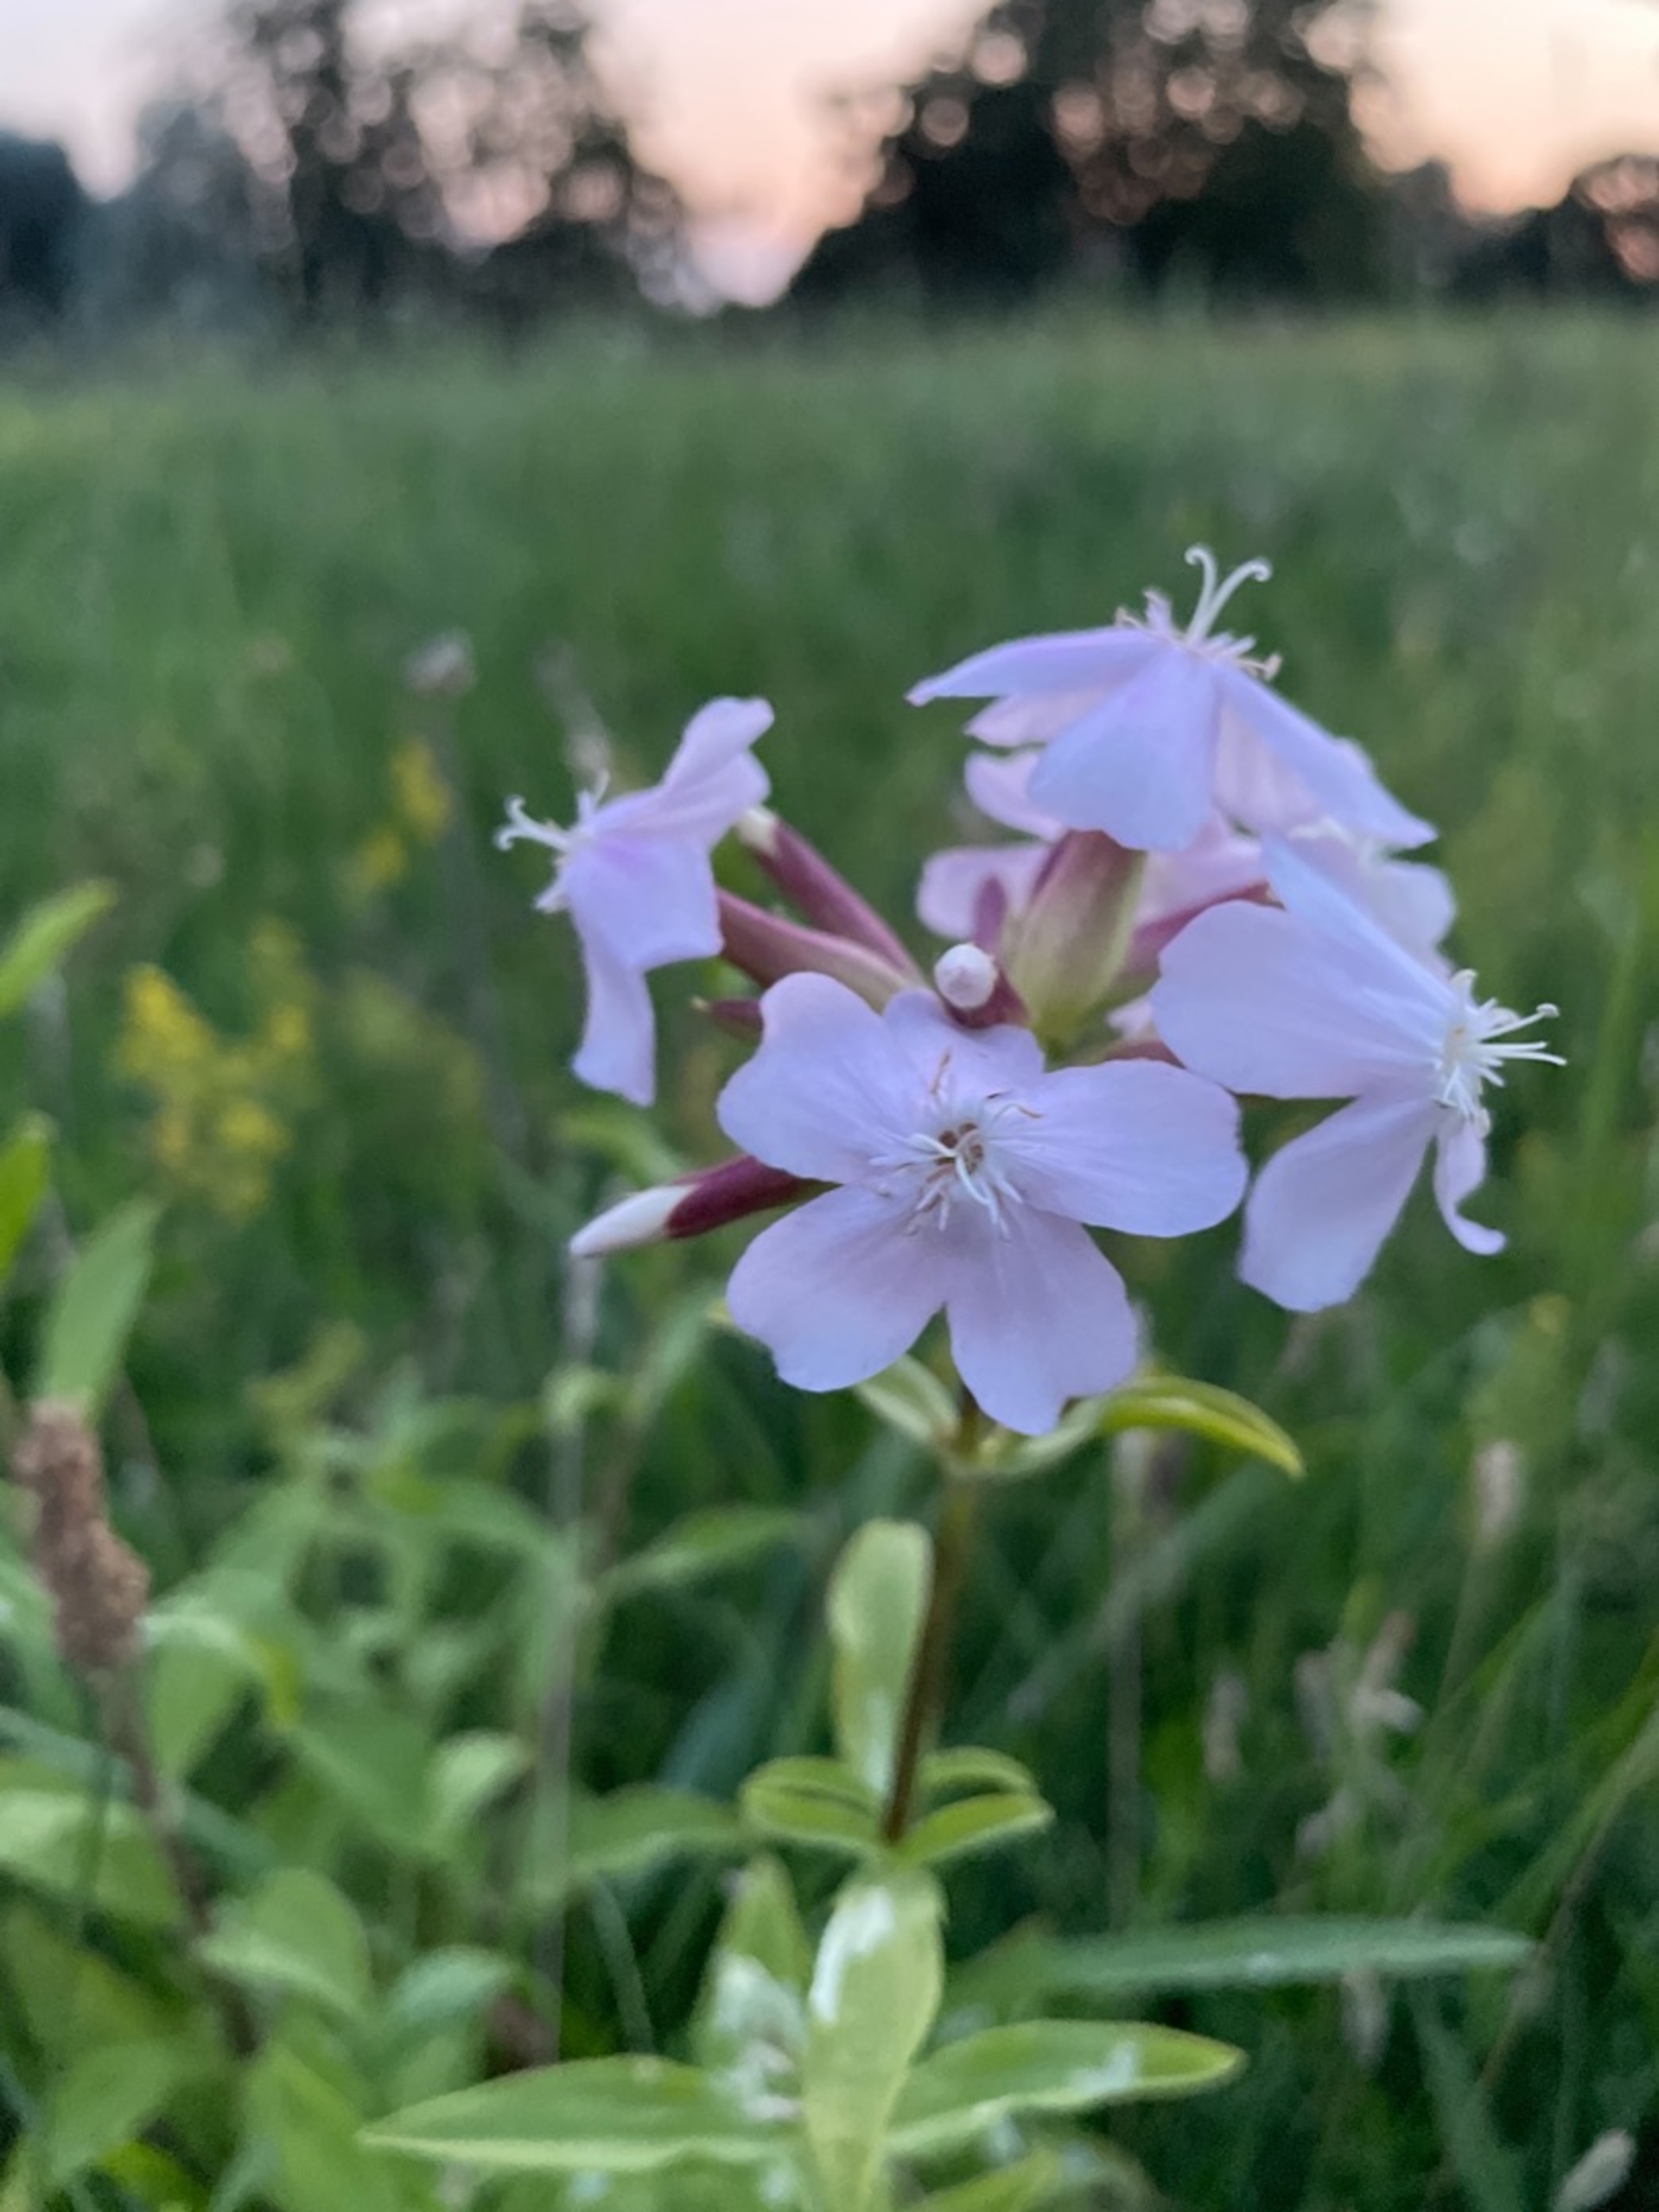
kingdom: Plantae
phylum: Tracheophyta
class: Magnoliopsida
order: Caryophyllales
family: Caryophyllaceae
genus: Saponaria
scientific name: Saponaria officinalis
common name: Sæbeurt
